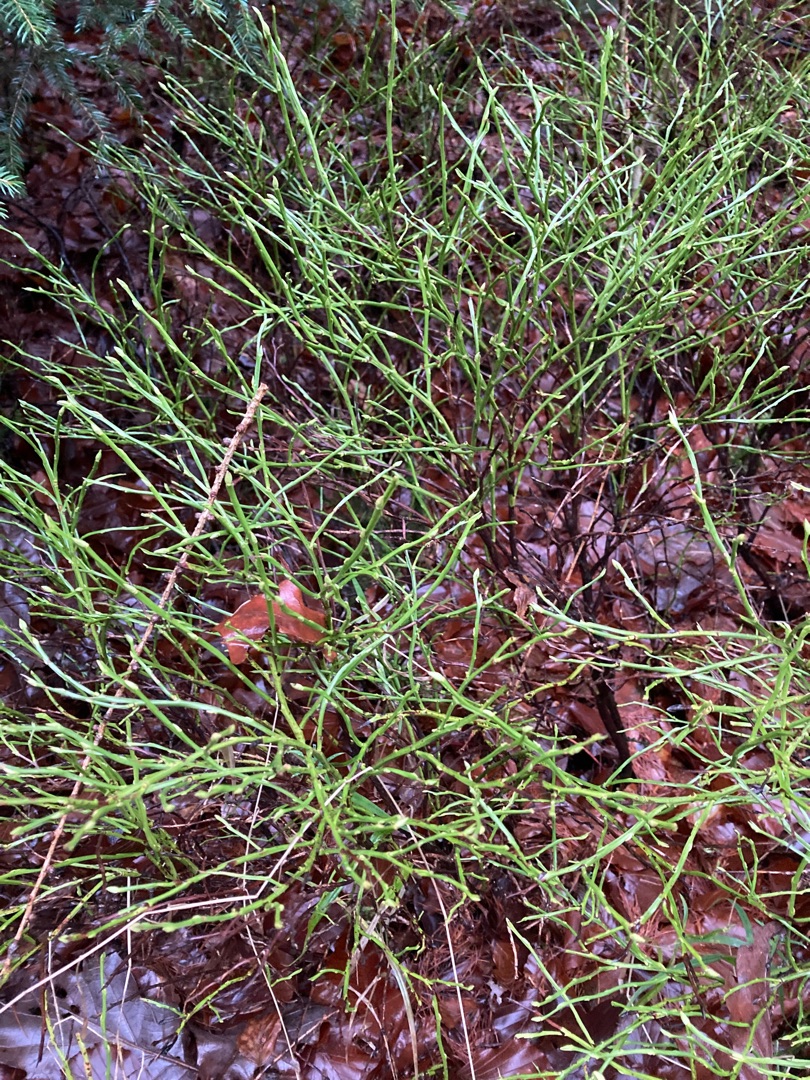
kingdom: Plantae
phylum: Tracheophyta
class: Magnoliopsida
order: Ericales
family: Ericaceae
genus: Vaccinium
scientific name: Vaccinium myrtillus
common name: Blåbær
